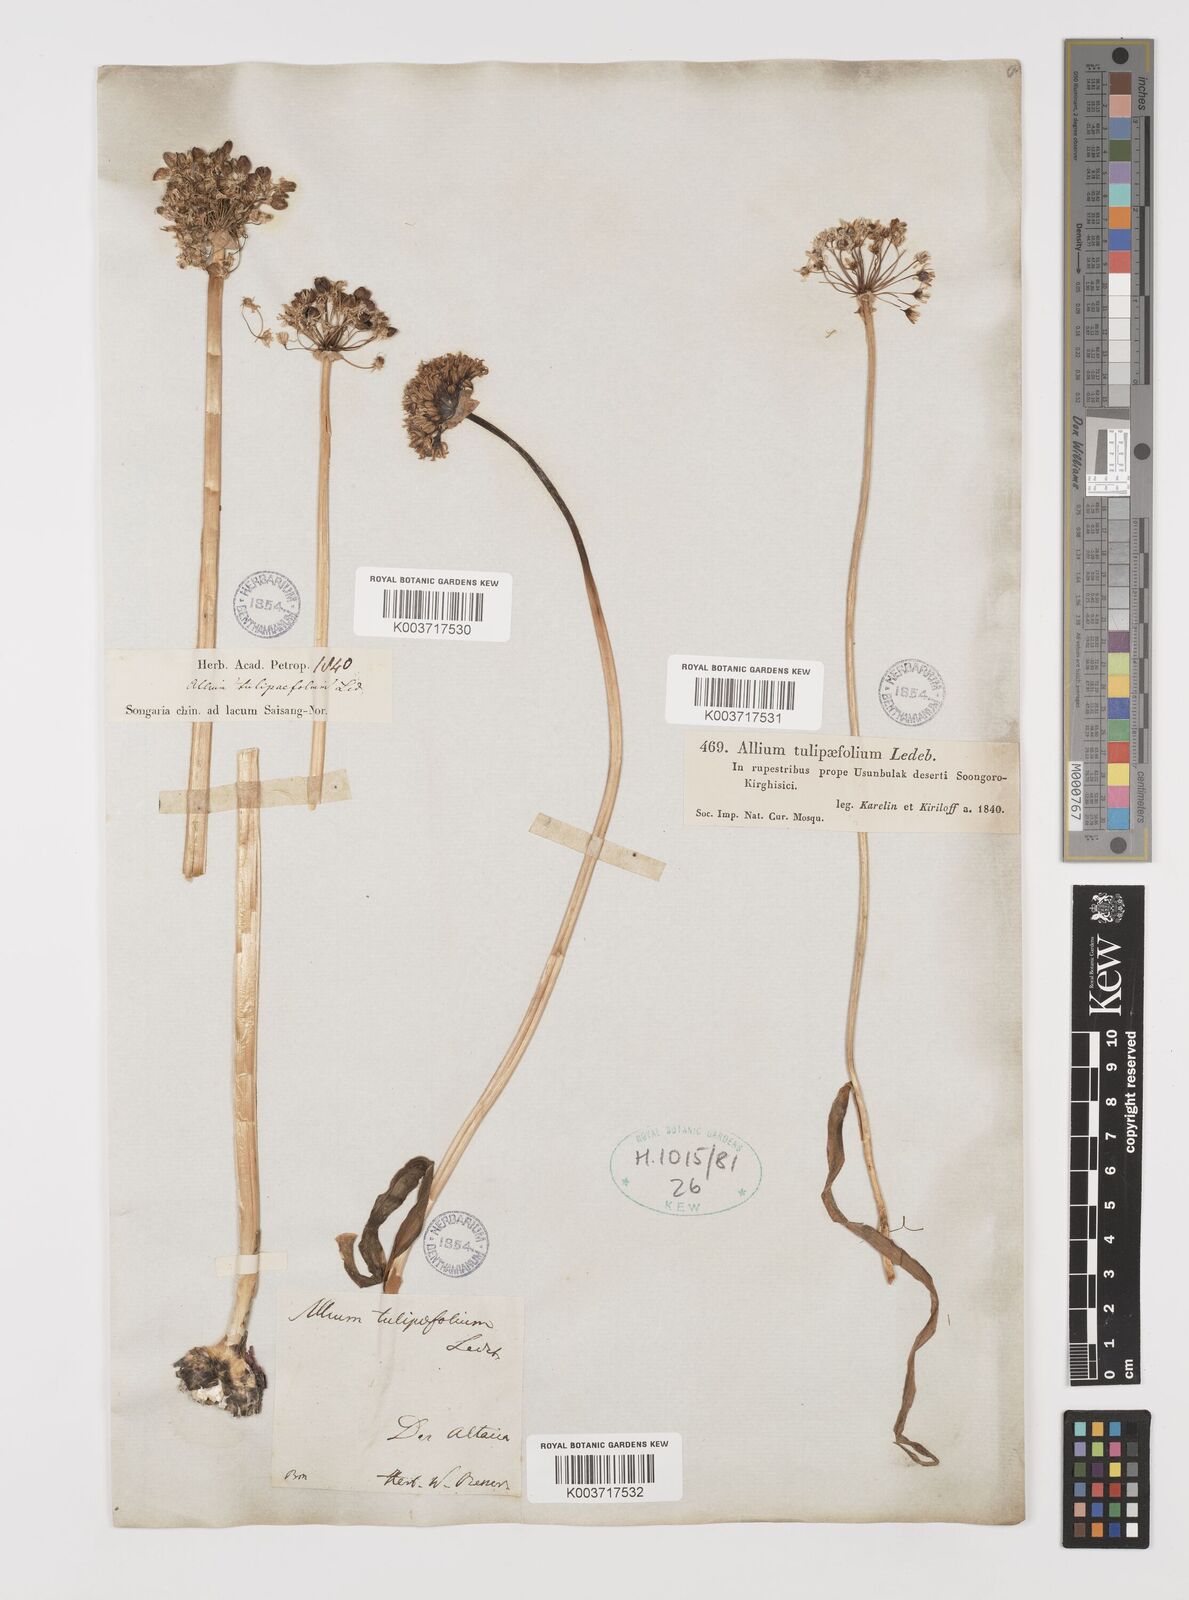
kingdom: Plantae
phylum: Tracheophyta
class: Liliopsida
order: Asparagales
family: Amaryllidaceae
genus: Allium
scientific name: Allium tulipifolium
